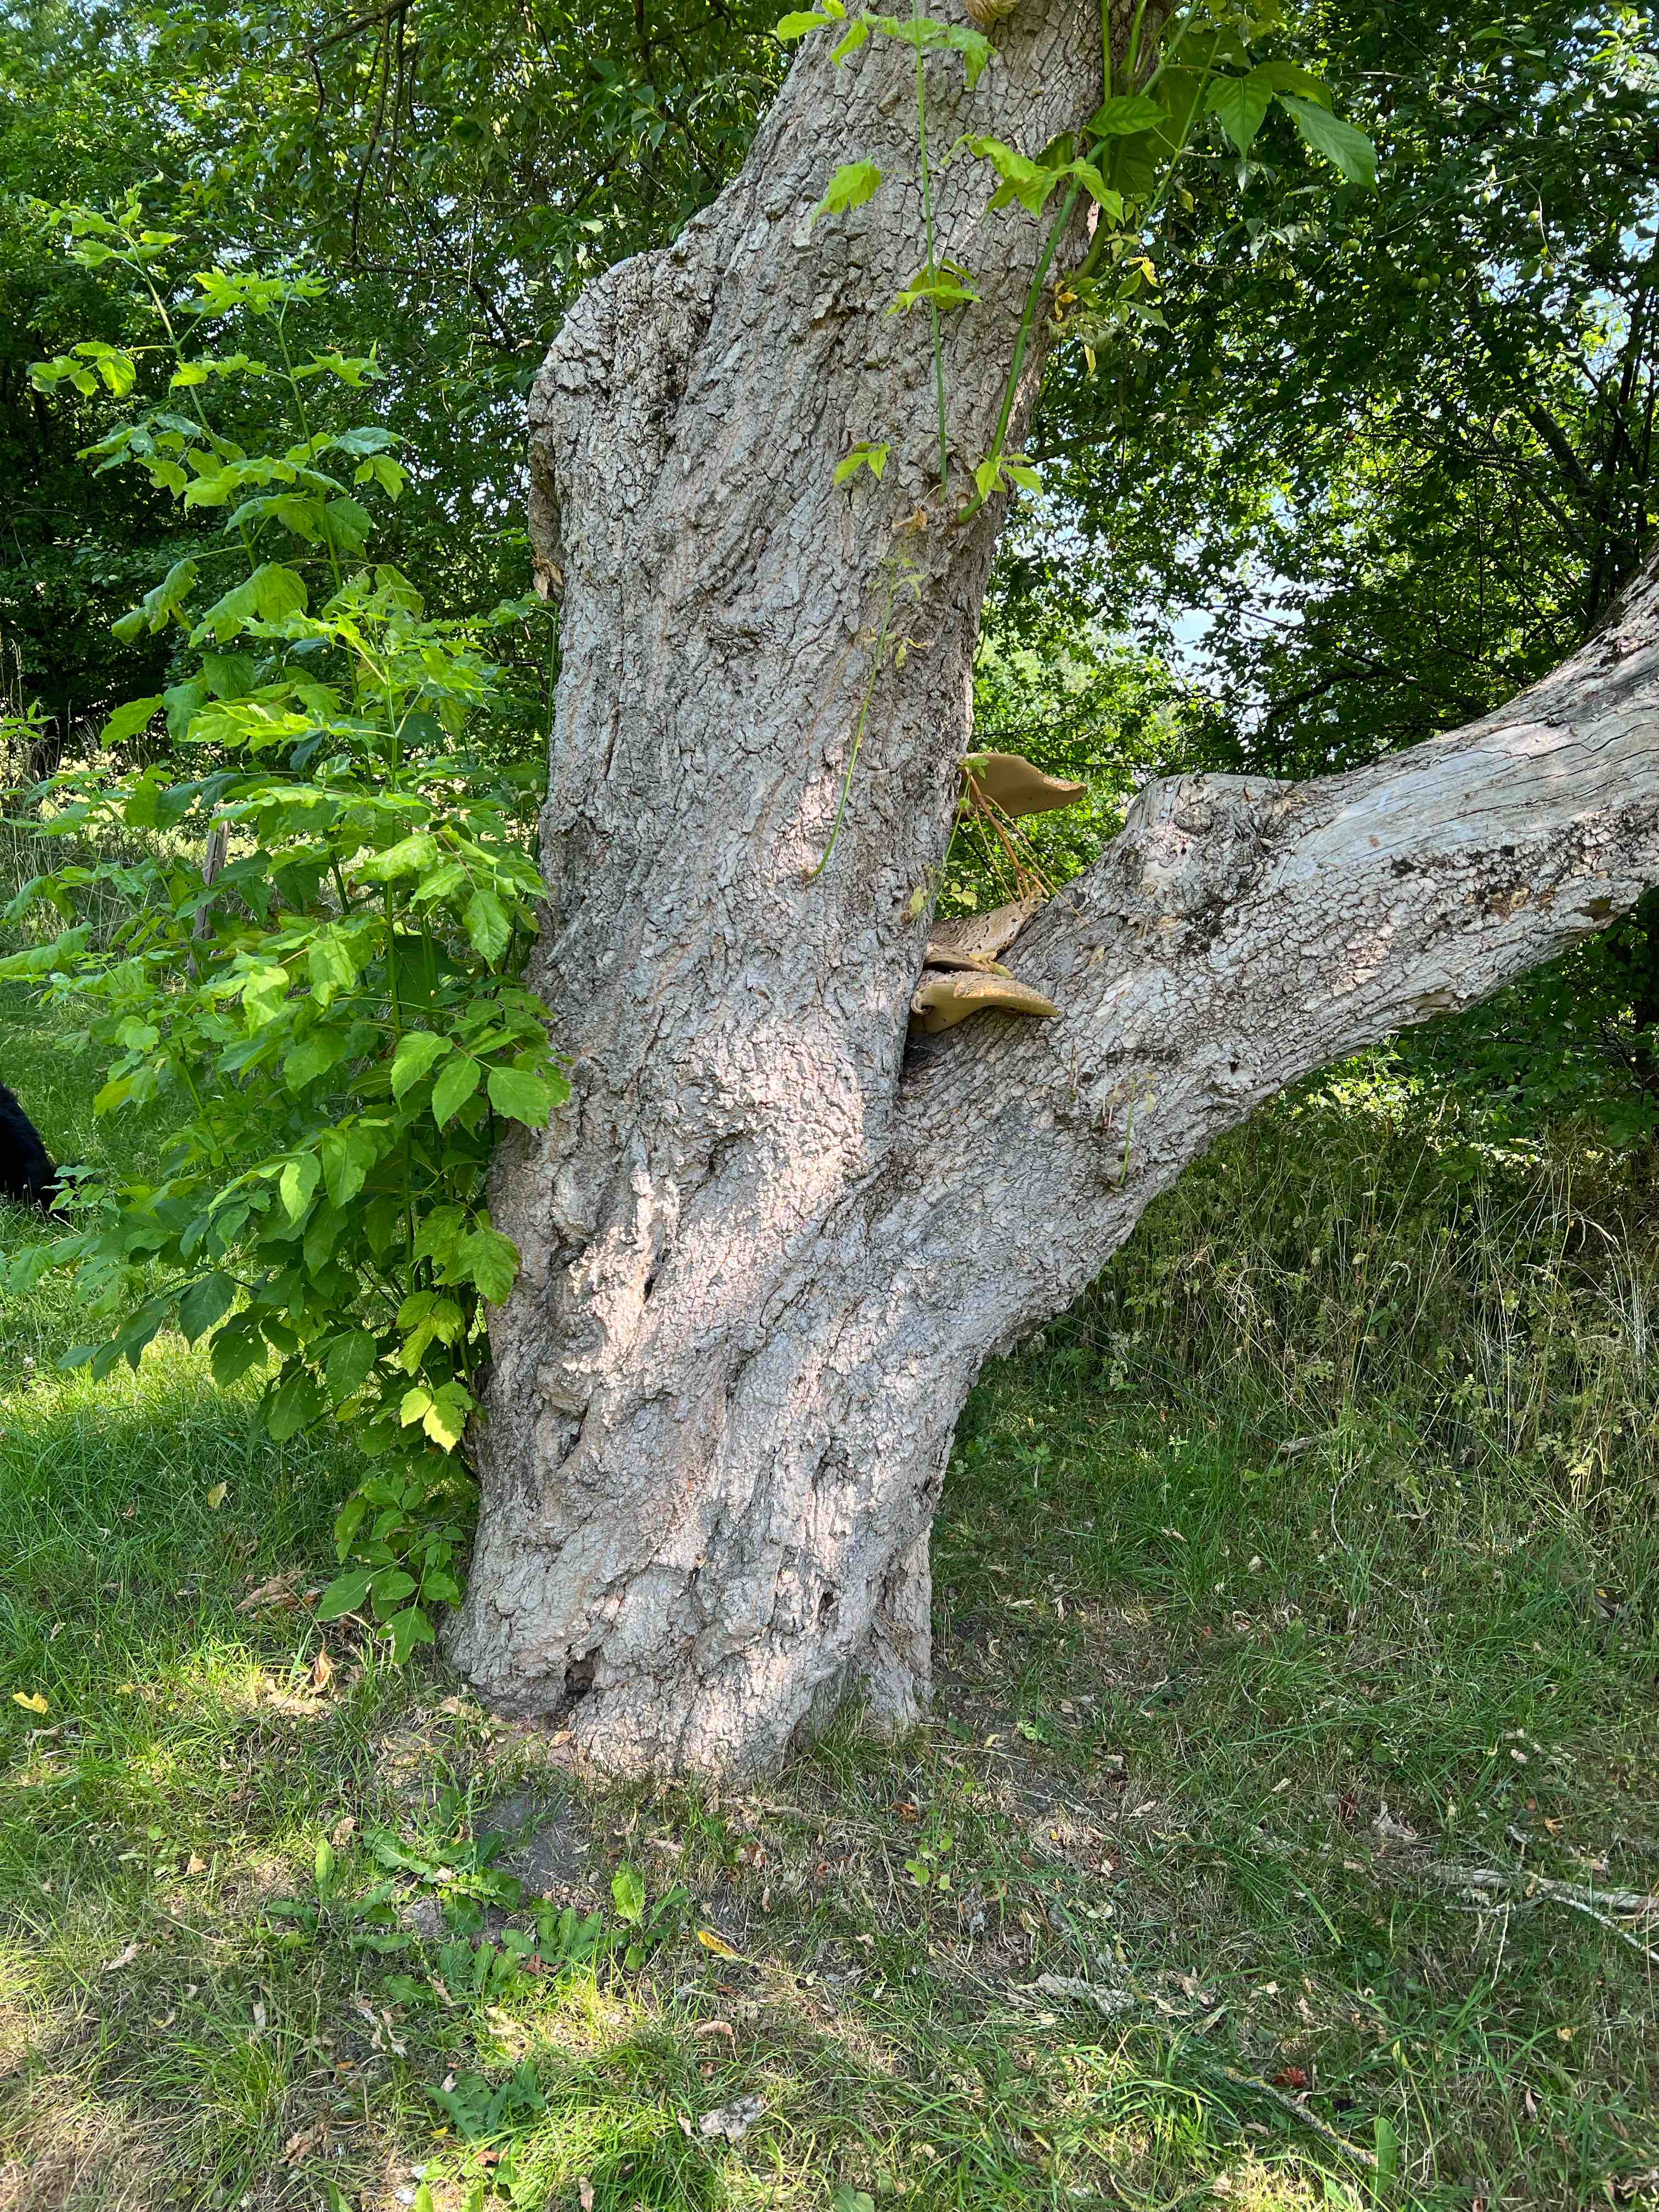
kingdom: Fungi
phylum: Basidiomycota
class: Agaricomycetes
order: Polyporales
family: Polyporaceae
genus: Cerioporus
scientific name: Cerioporus squamosus
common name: skællet stilkporesvamp
